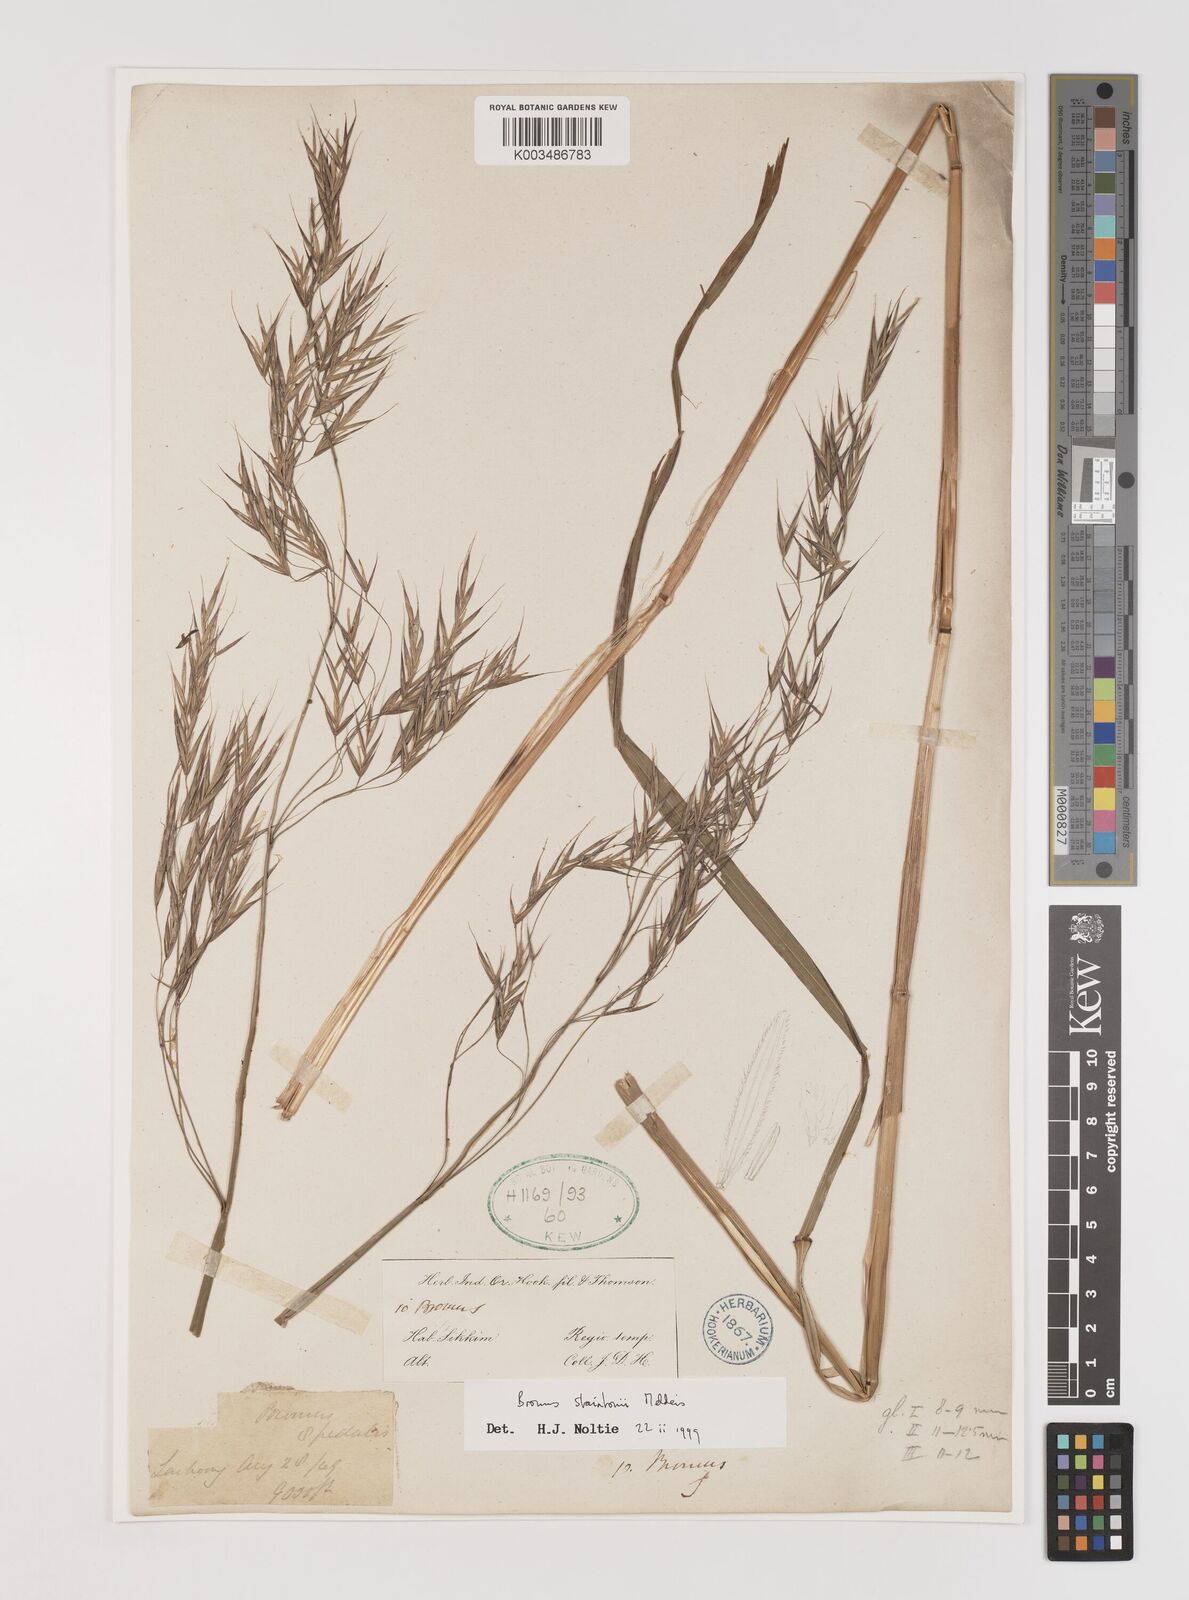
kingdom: Plantae
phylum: Tracheophyta
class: Liliopsida
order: Poales
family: Poaceae
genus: Bromus
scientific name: Bromus staintonii
